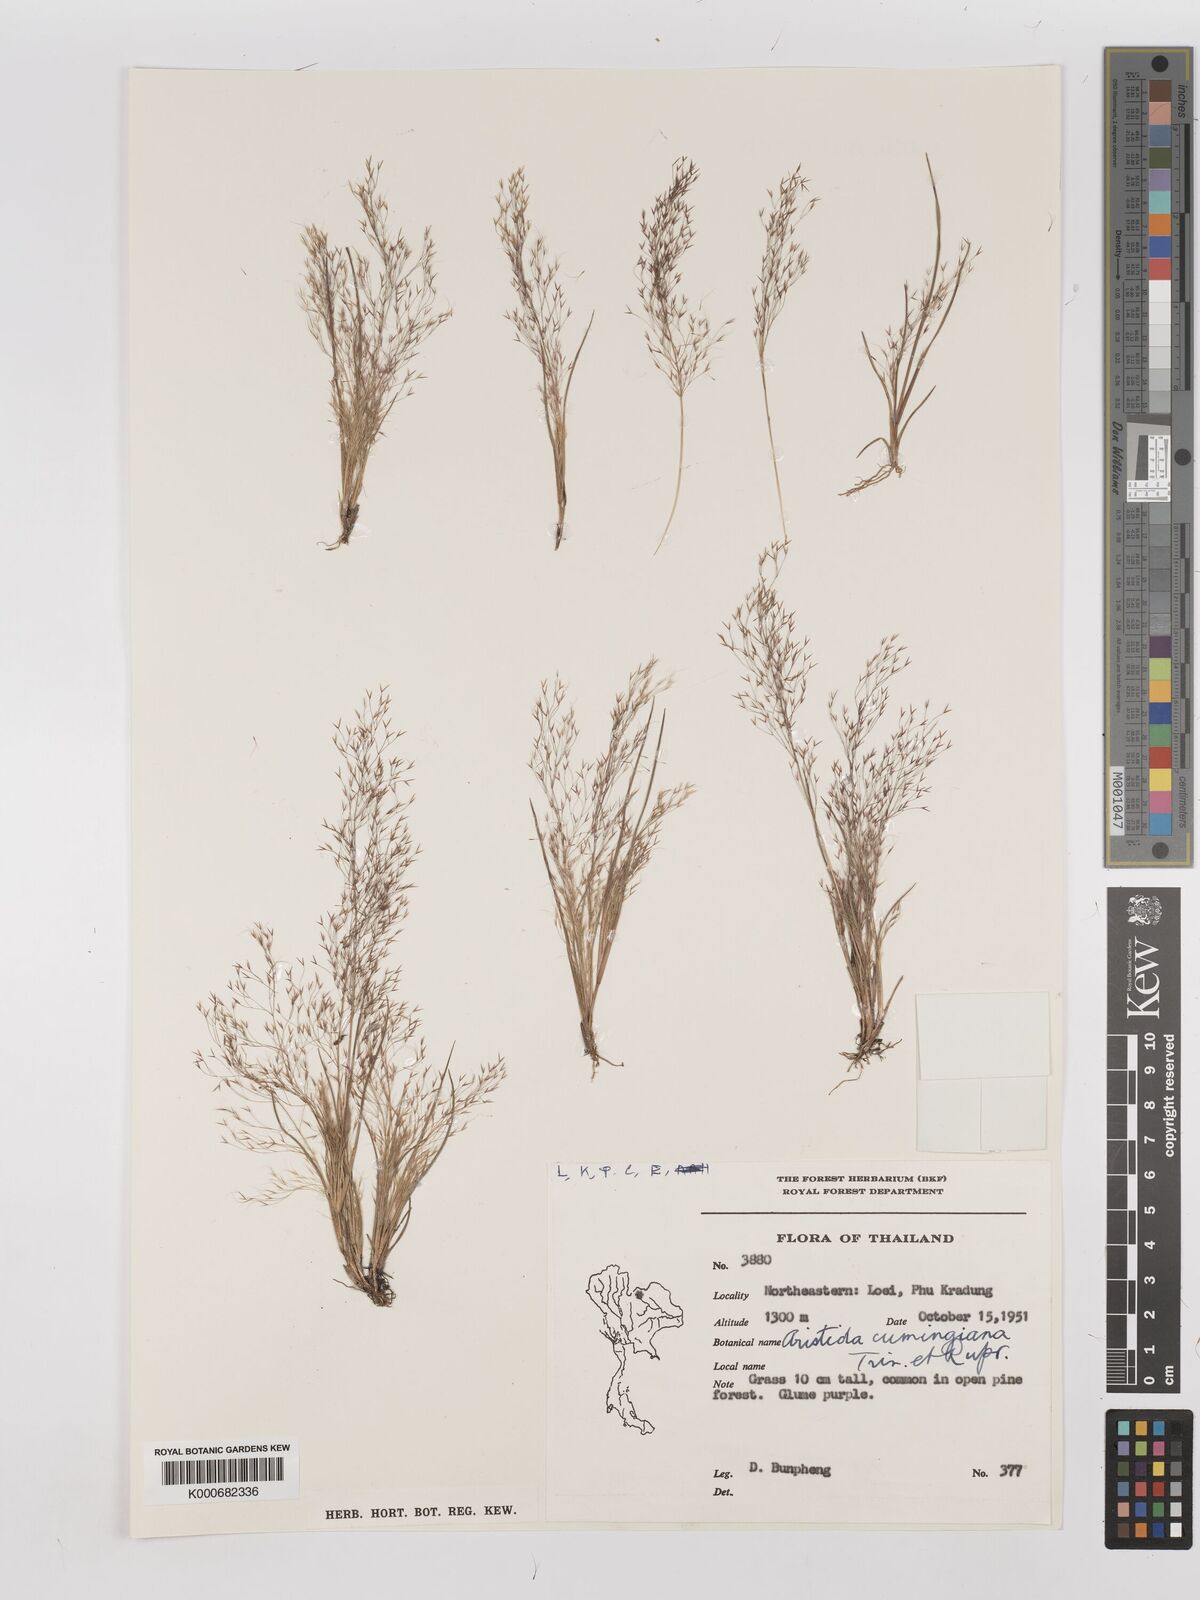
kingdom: Plantae
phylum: Tracheophyta
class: Liliopsida
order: Poales
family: Poaceae
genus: Aristida
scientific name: Aristida cumingiana
